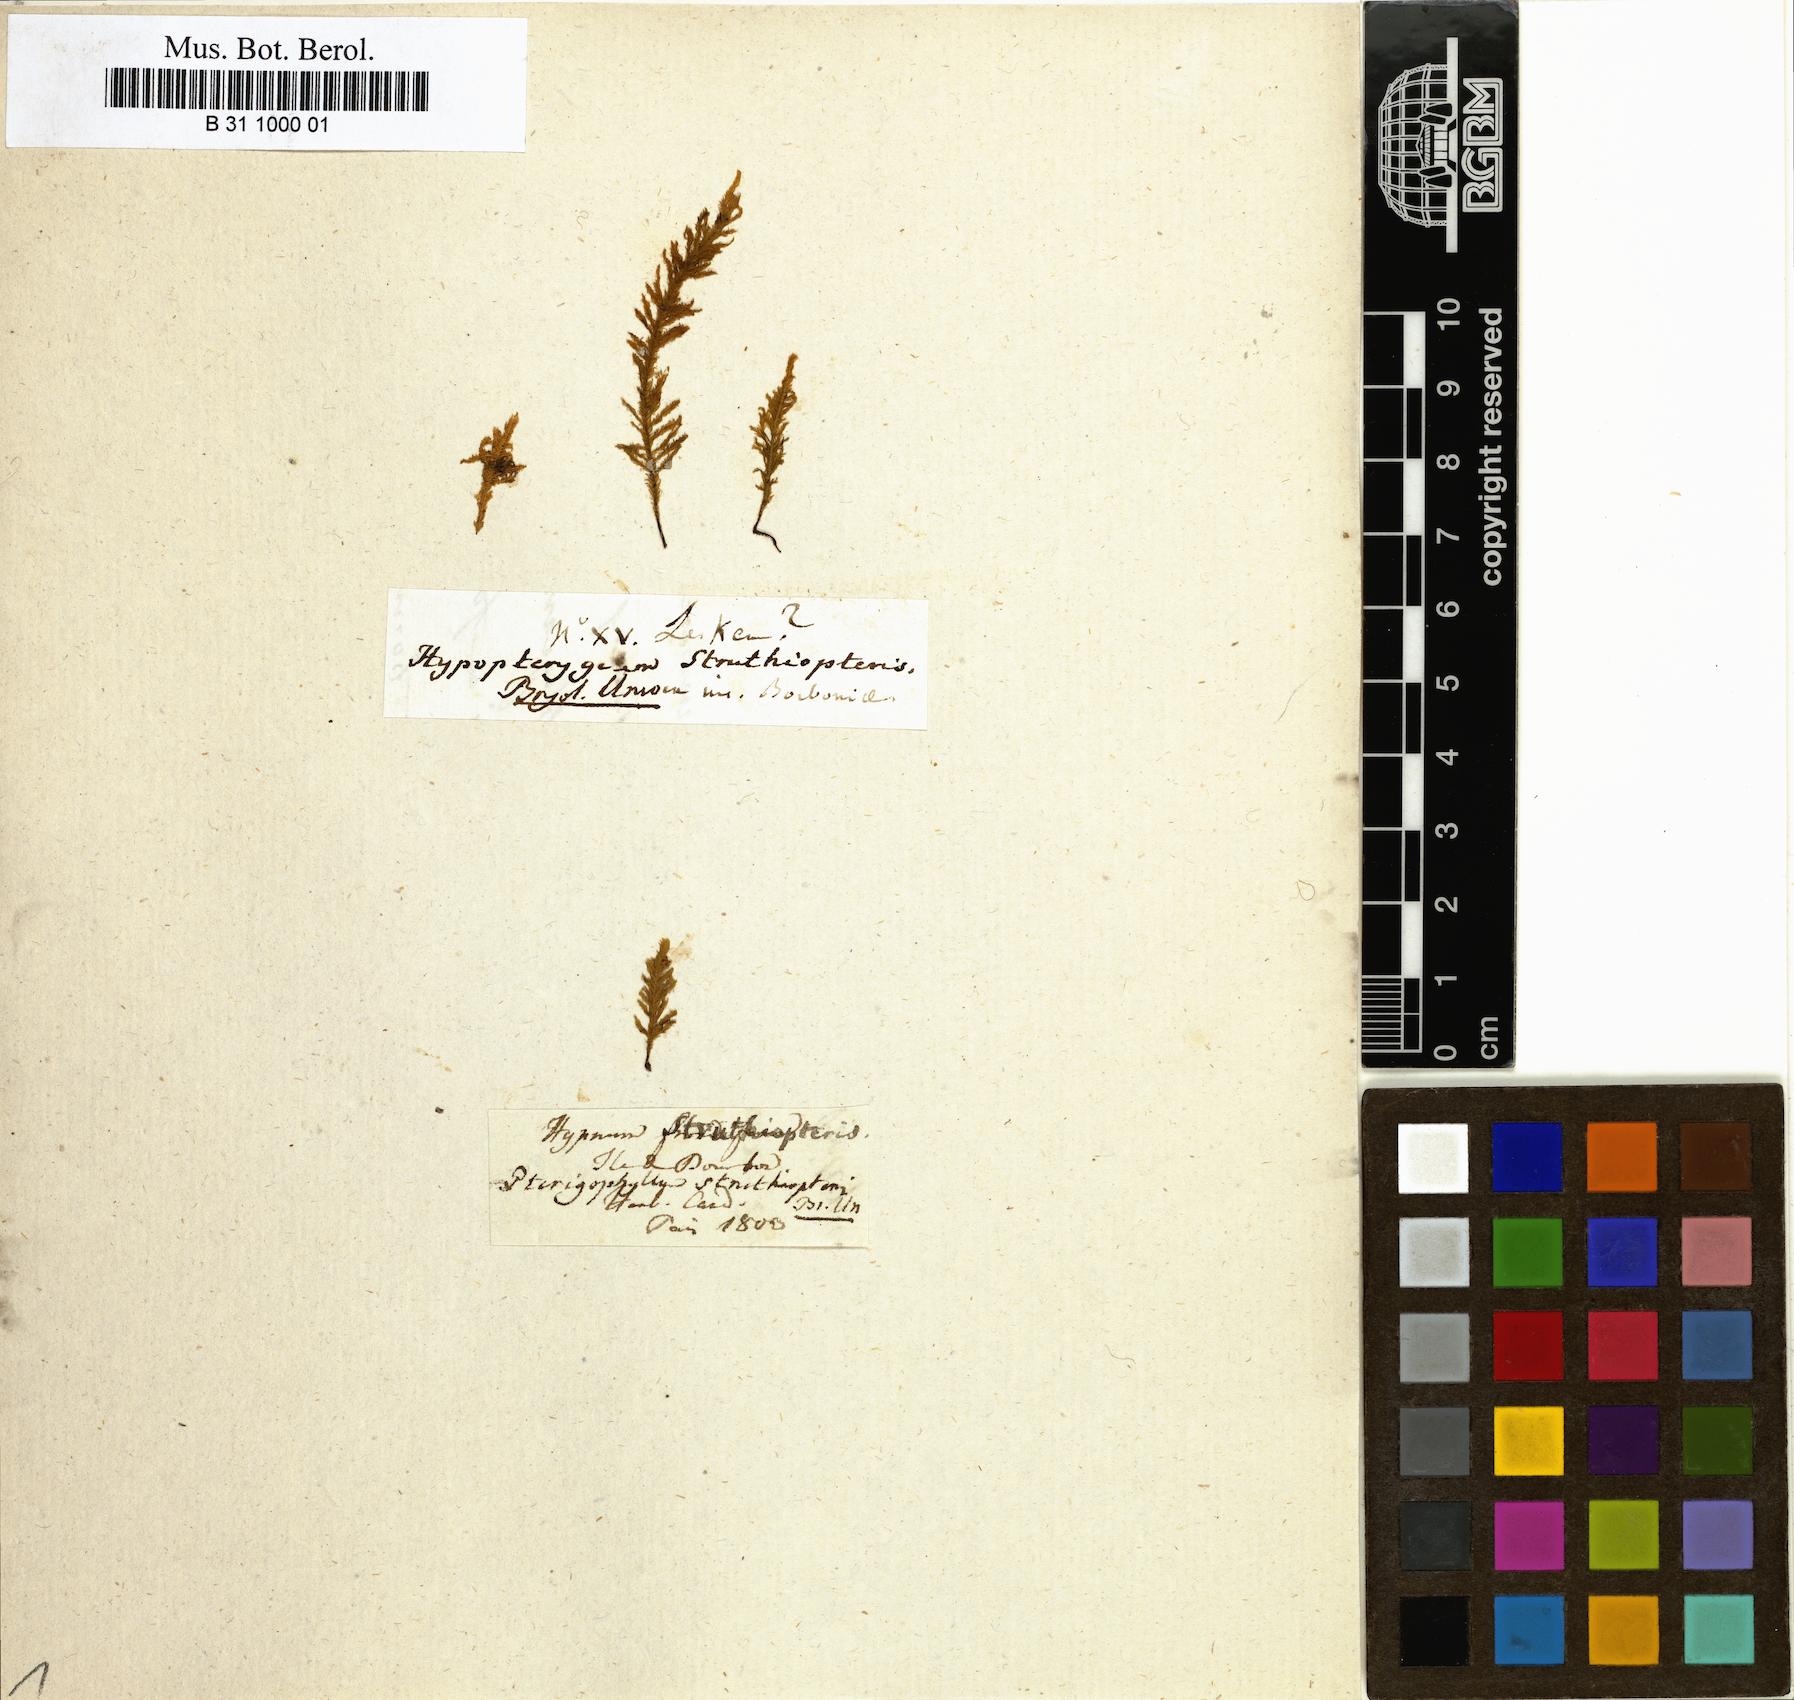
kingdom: Plantae
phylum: Bryophyta
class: Bryopsida
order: Hypopterygiales
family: Hypopterygiaceae
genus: Lopidium
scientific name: Lopidium struthiopteris
